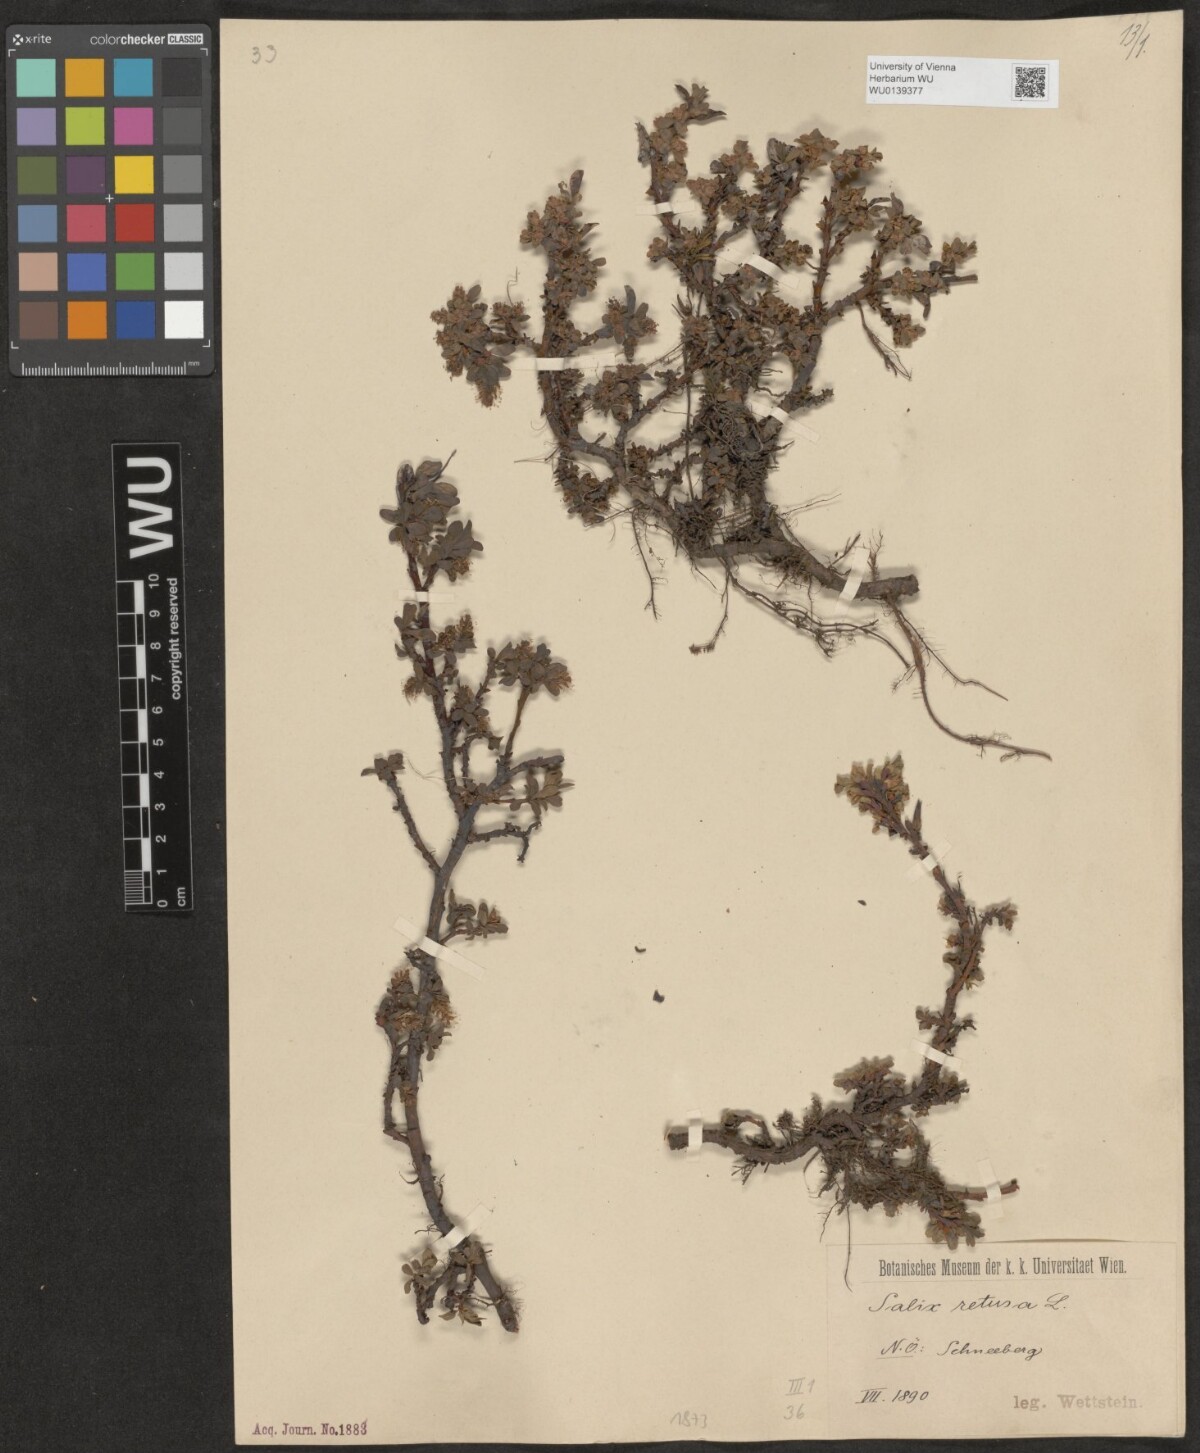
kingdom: Plantae
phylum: Tracheophyta
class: Magnoliopsida
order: Malpighiales
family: Salicaceae
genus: Salix
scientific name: Salix retusa
